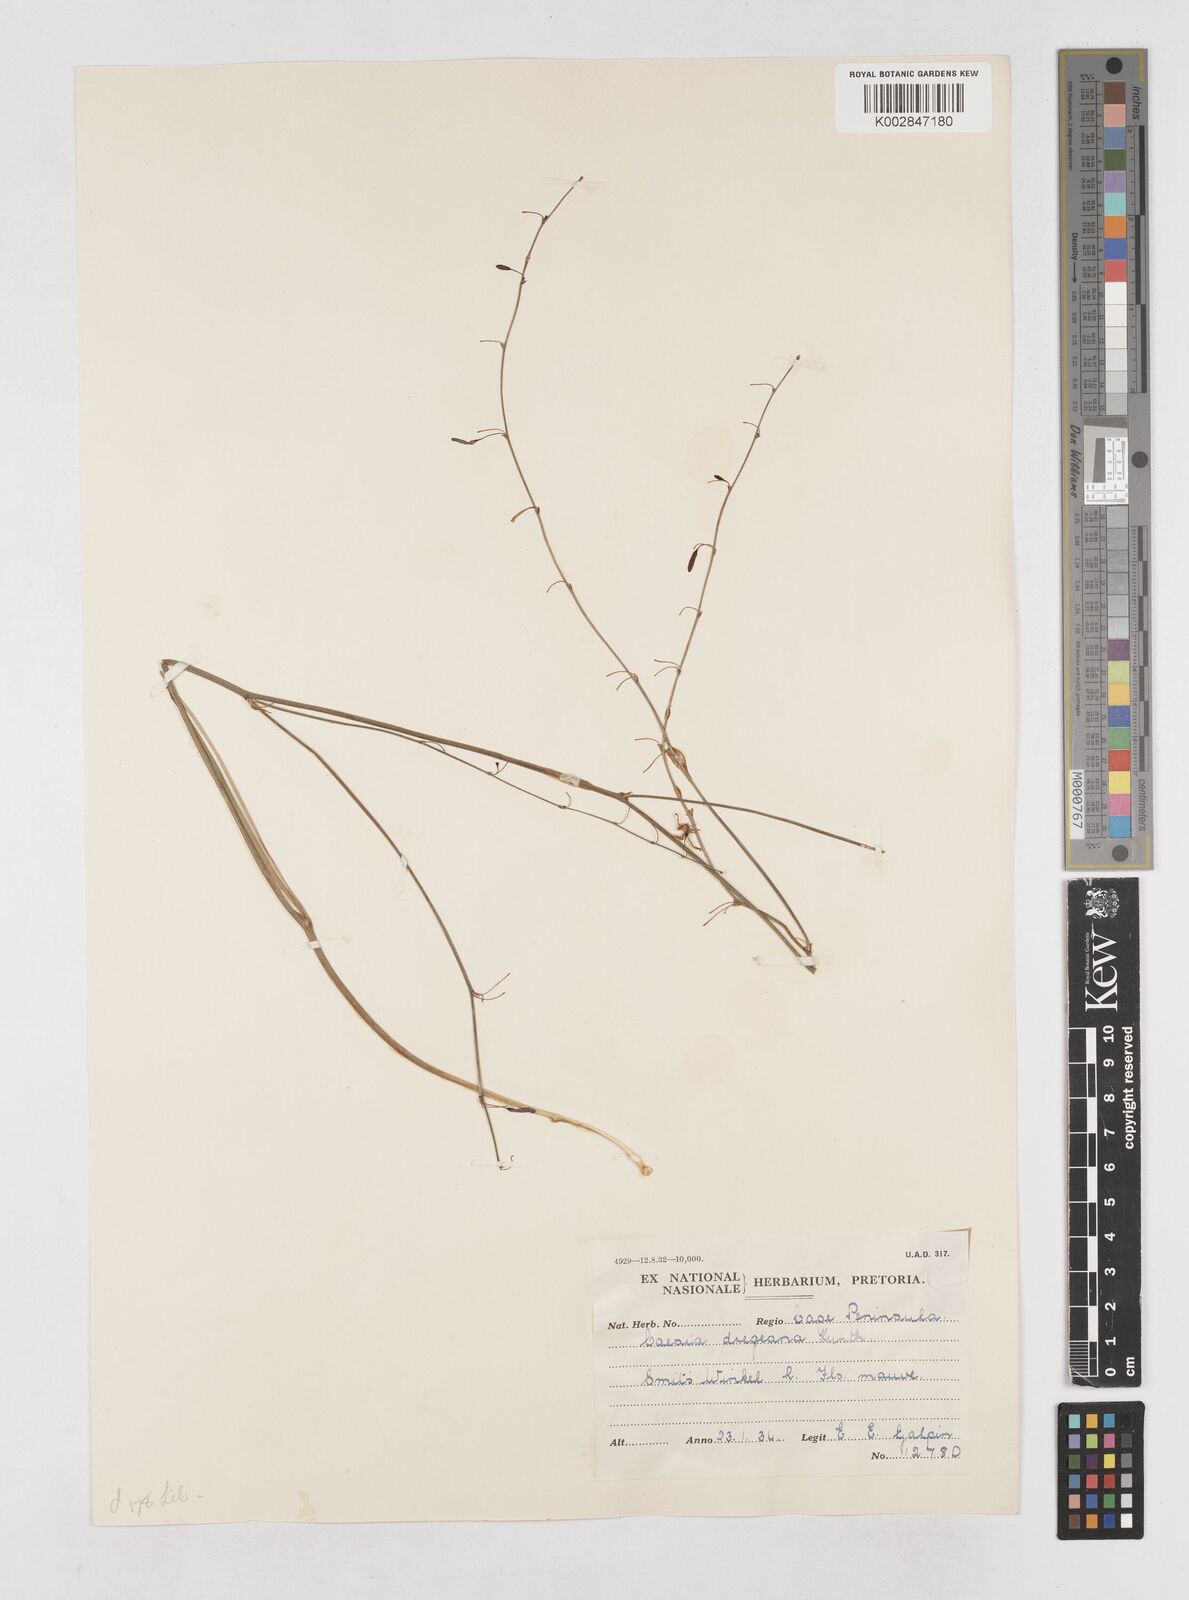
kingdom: Plantae
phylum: Tracheophyta
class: Liliopsida
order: Asparagales
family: Asphodelaceae
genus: Caesia
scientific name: Caesia contorta
